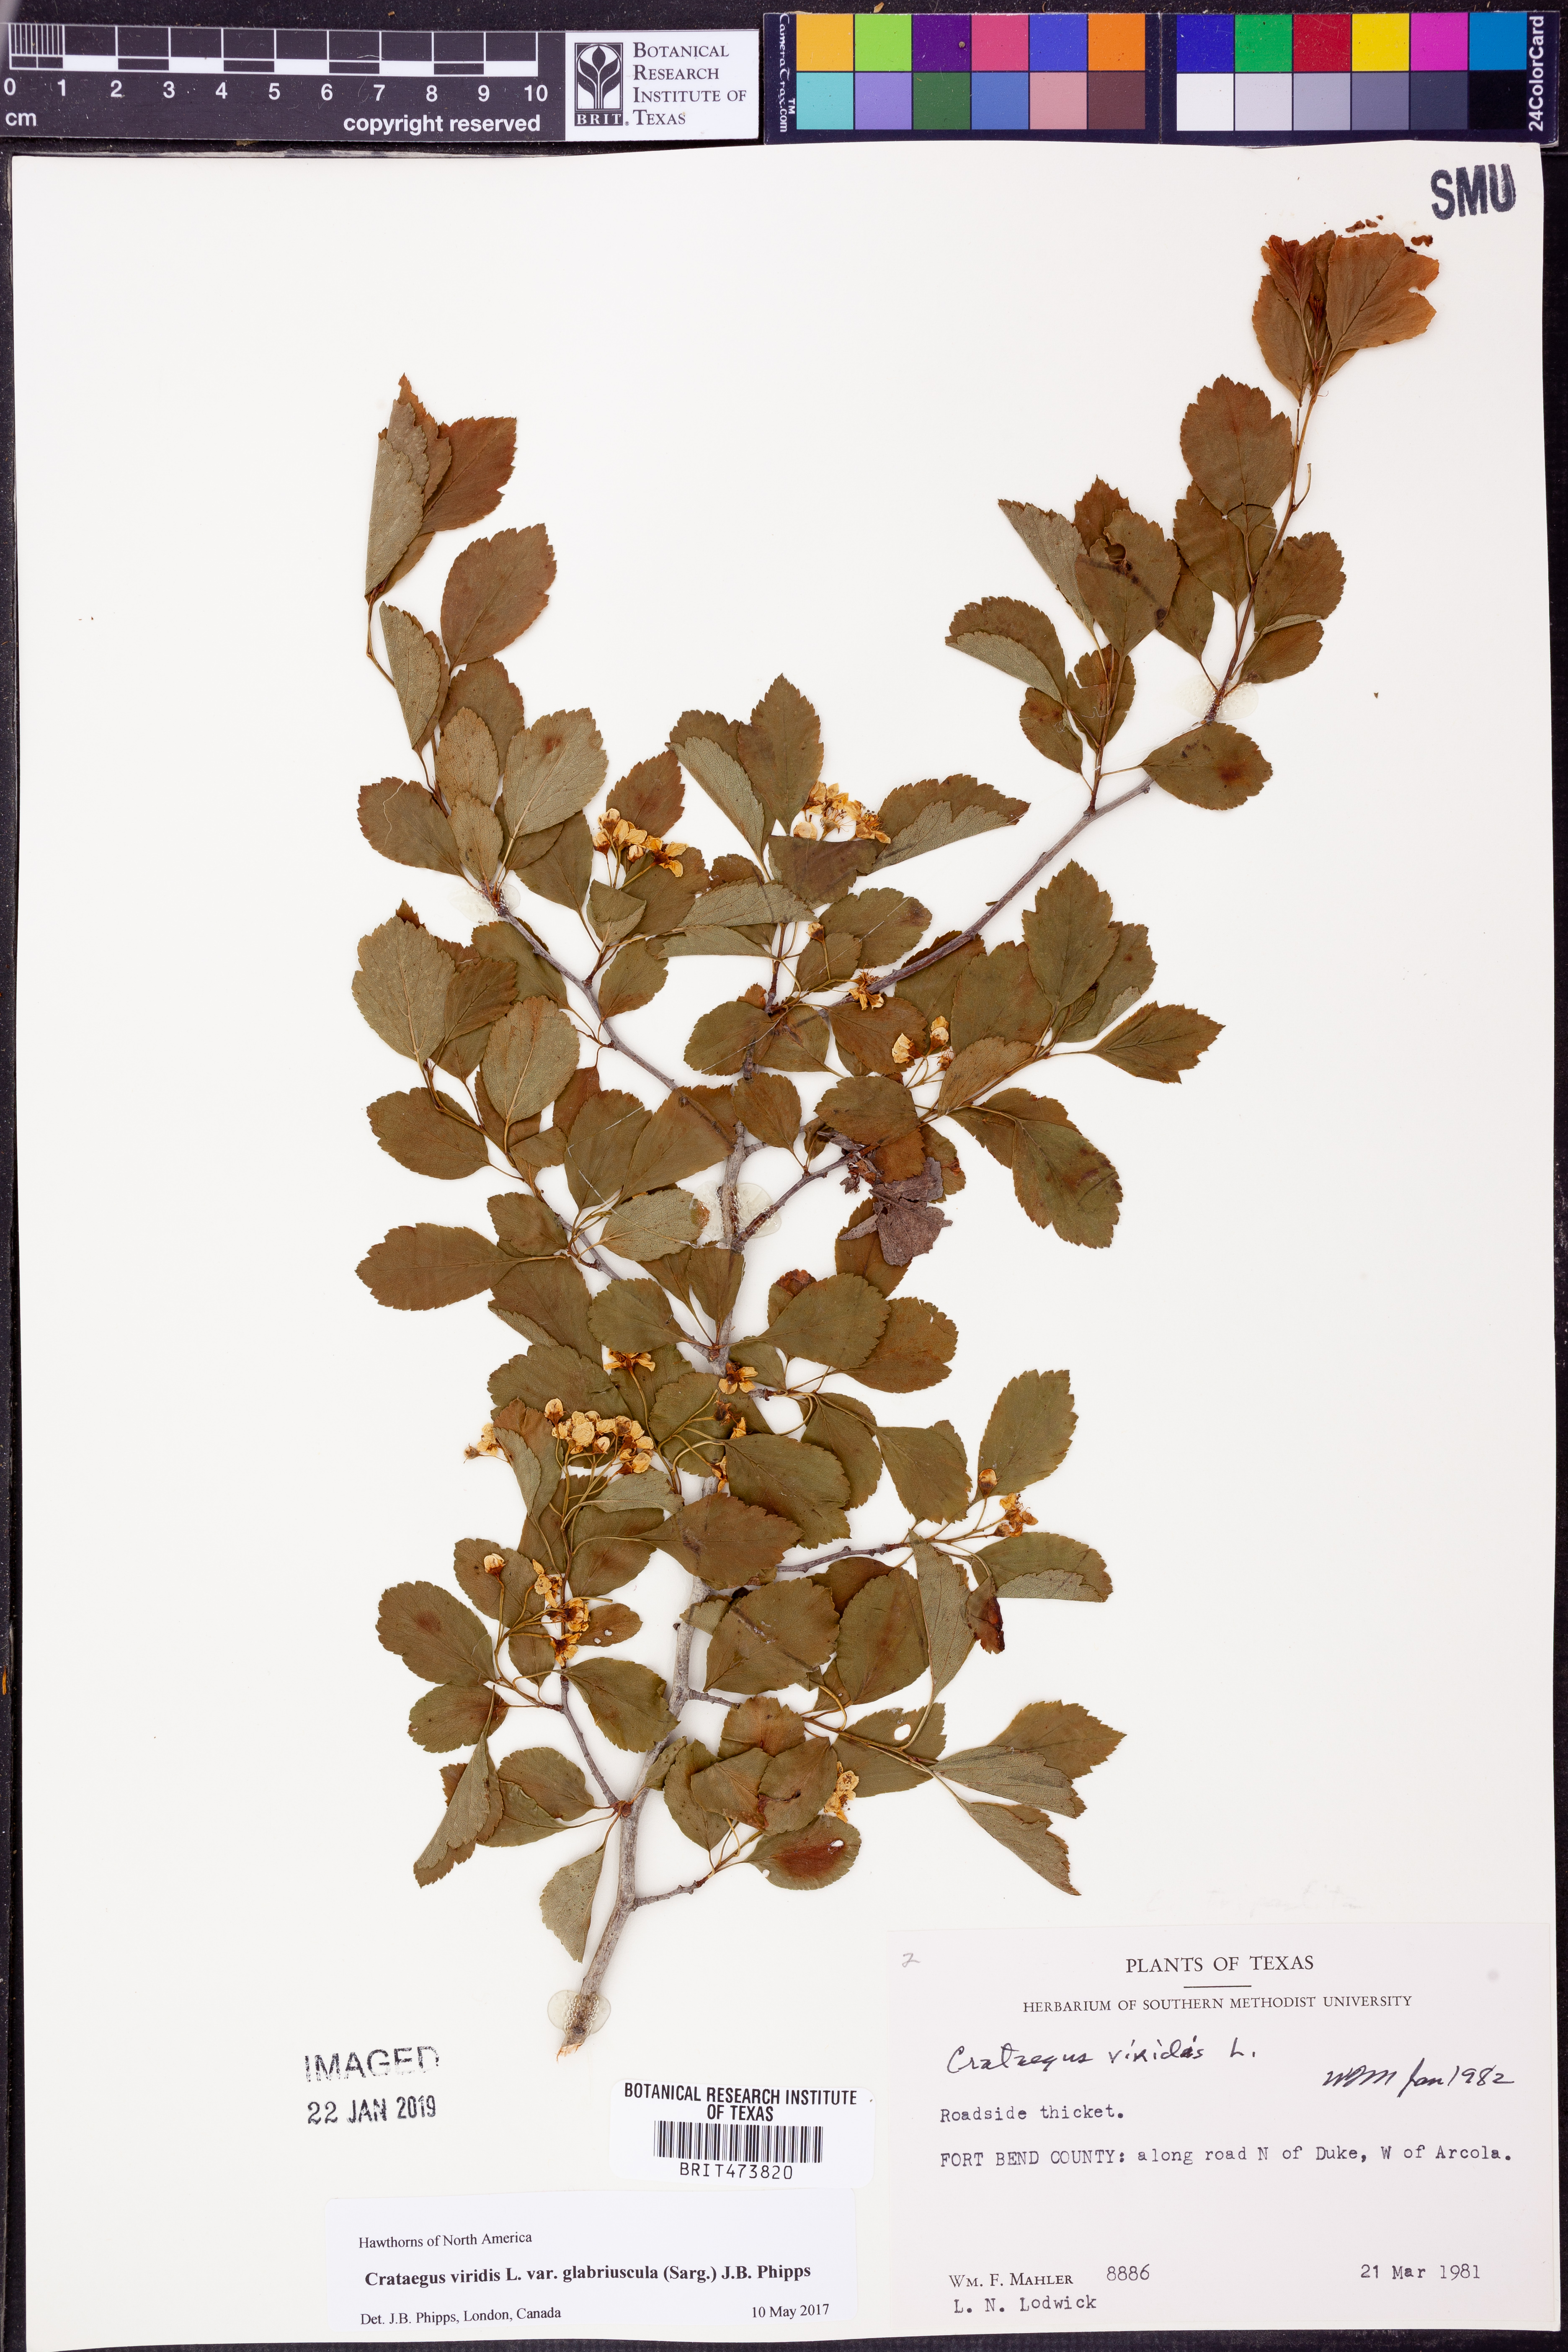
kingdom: Plantae
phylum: Tracheophyta
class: Magnoliopsida
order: Rosales
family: Rosaceae
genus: Crataegus
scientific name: Crataegus viridis
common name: Southernthorn
